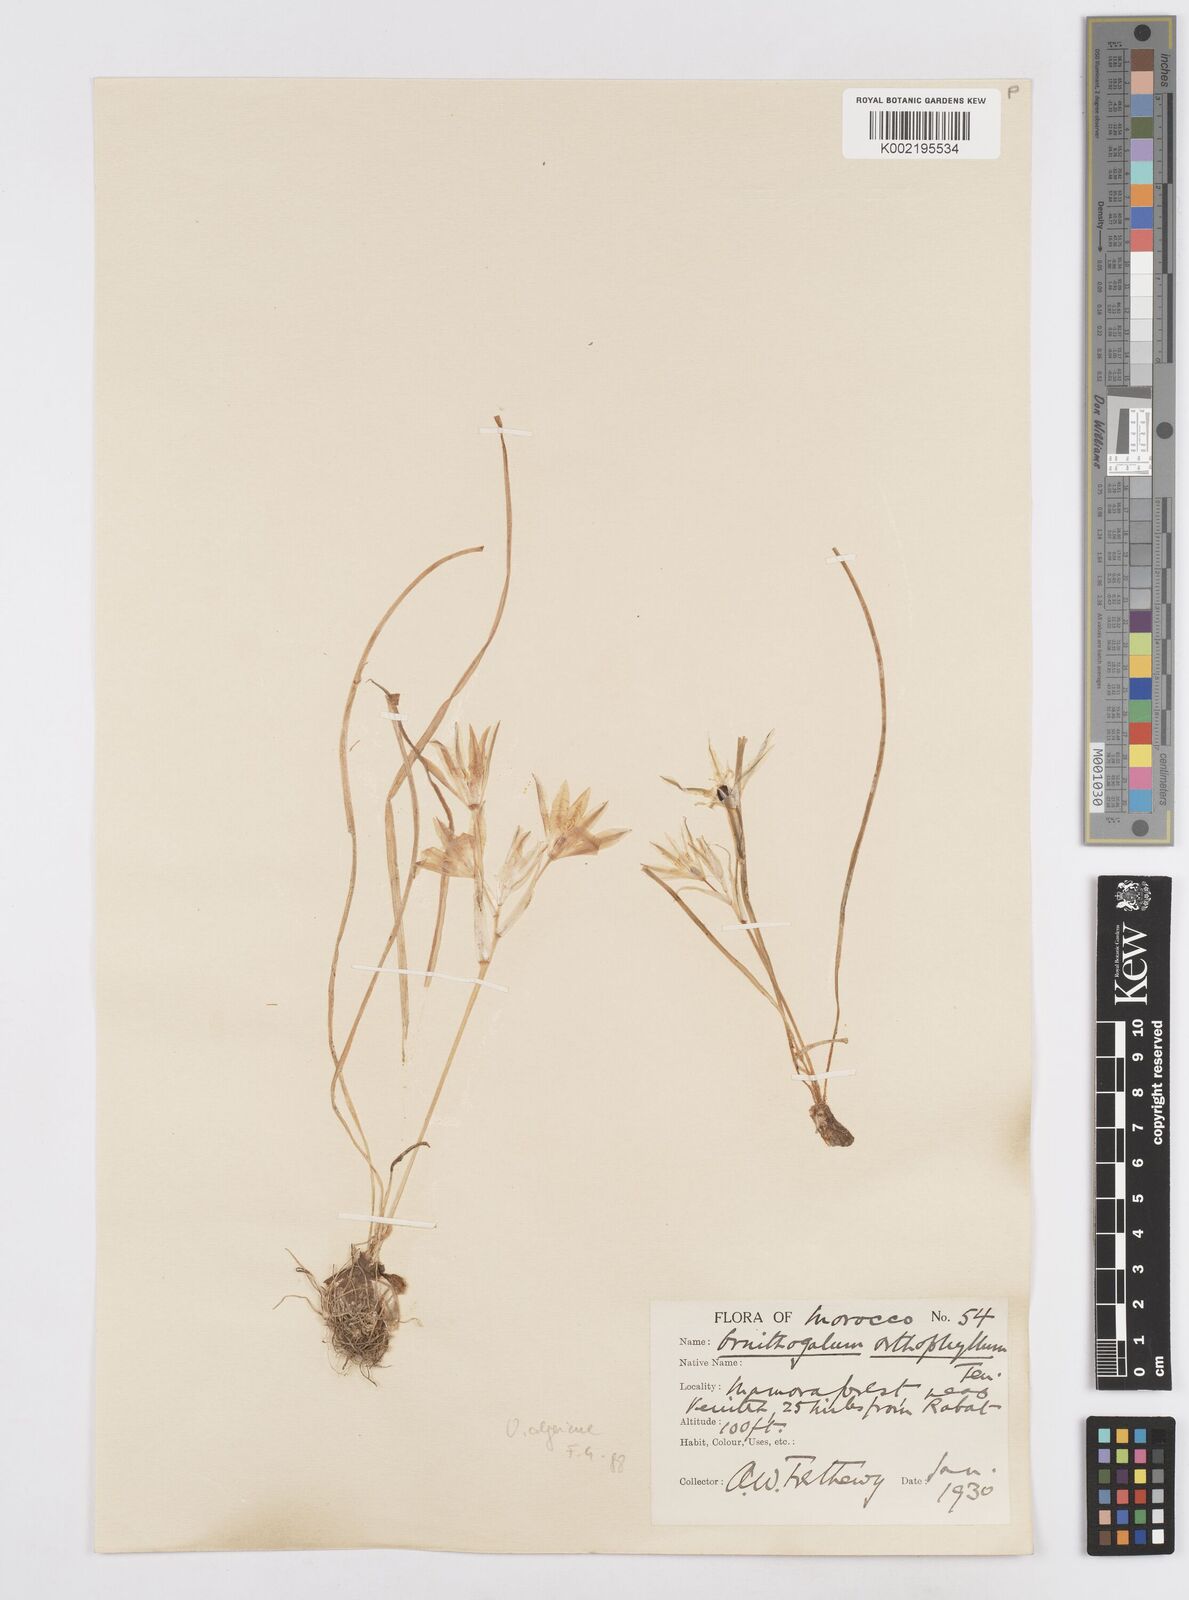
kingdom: Plantae
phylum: Tracheophyta
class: Liliopsida
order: Asparagales
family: Asparagaceae
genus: Ornithogalum
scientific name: Ornithogalum baeticum
